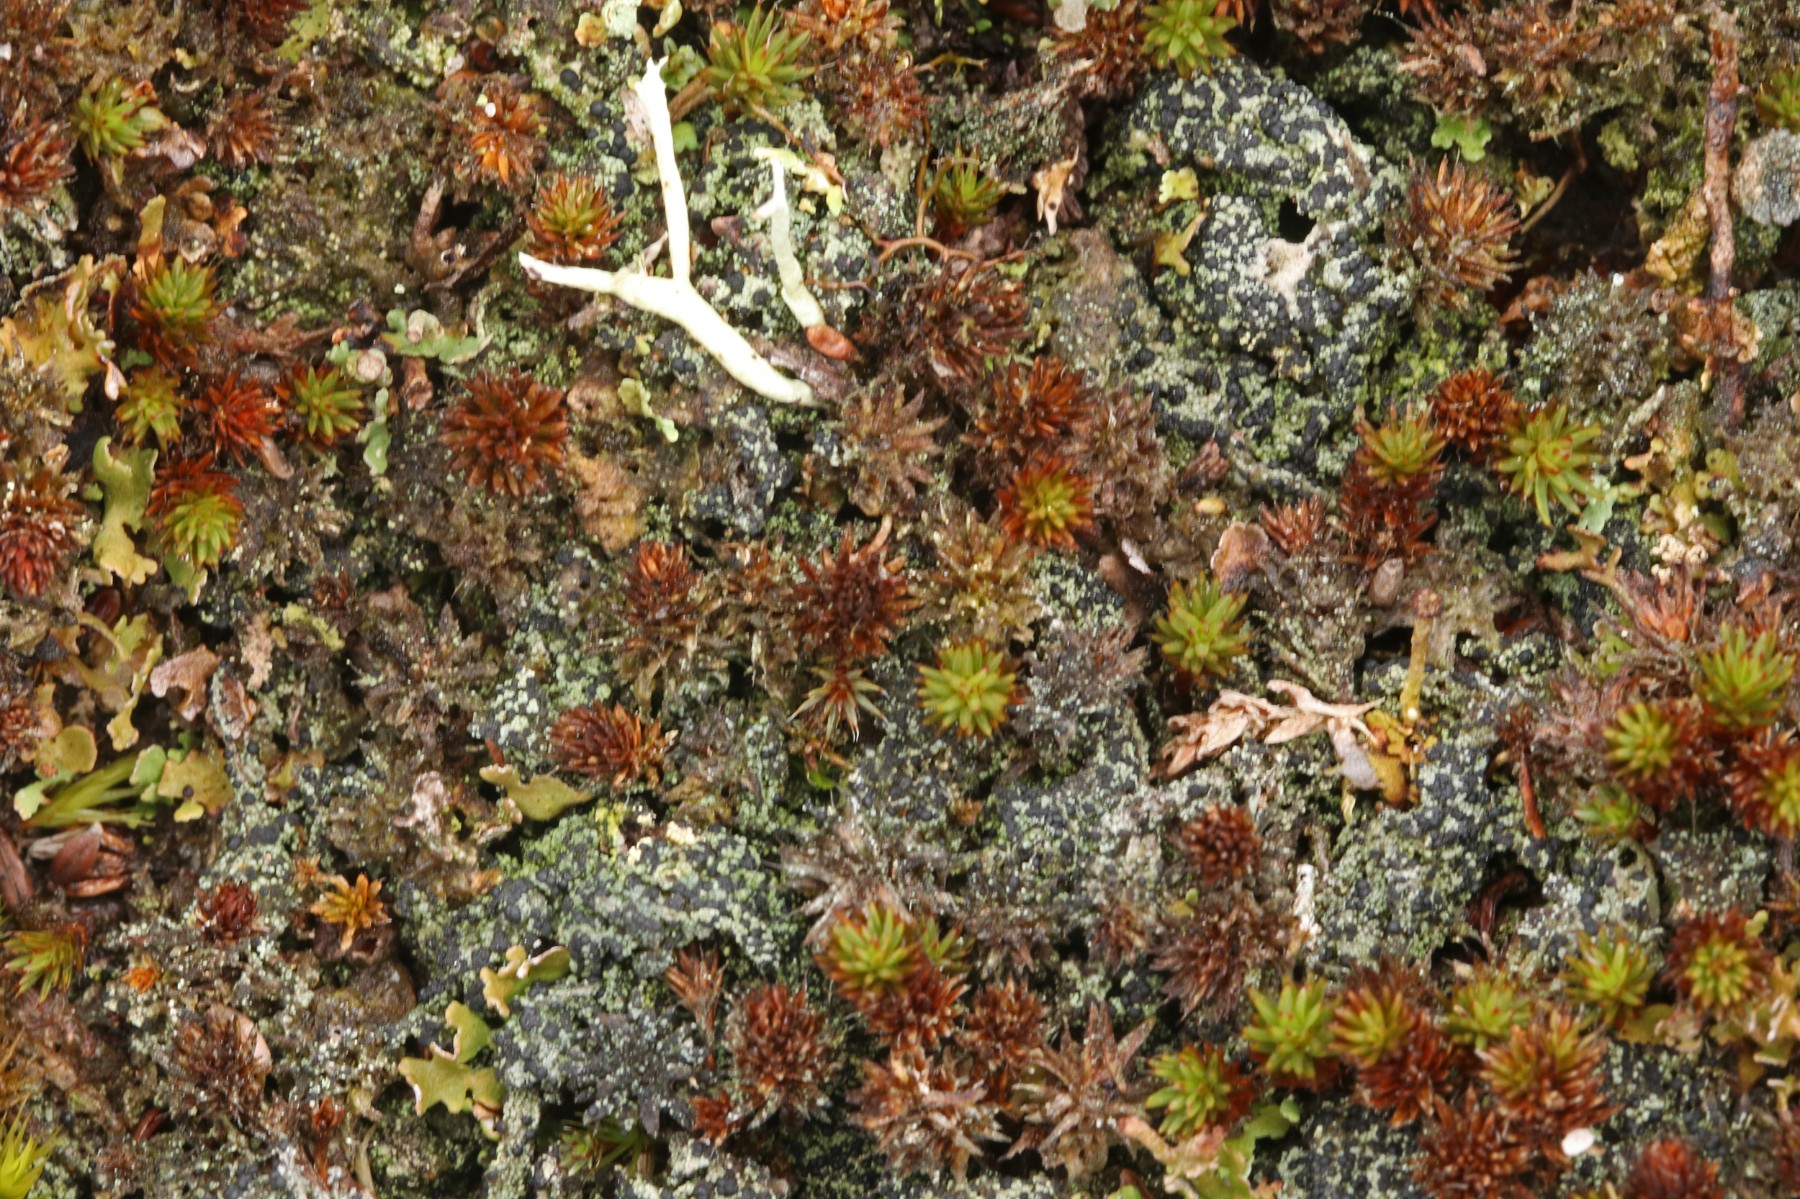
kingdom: Fungi
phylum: Ascomycota
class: Lecanoromycetes
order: Lecanorales
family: Byssolomataceae
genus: Micarea
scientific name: Micarea lignaria
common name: tørve-knaplav
